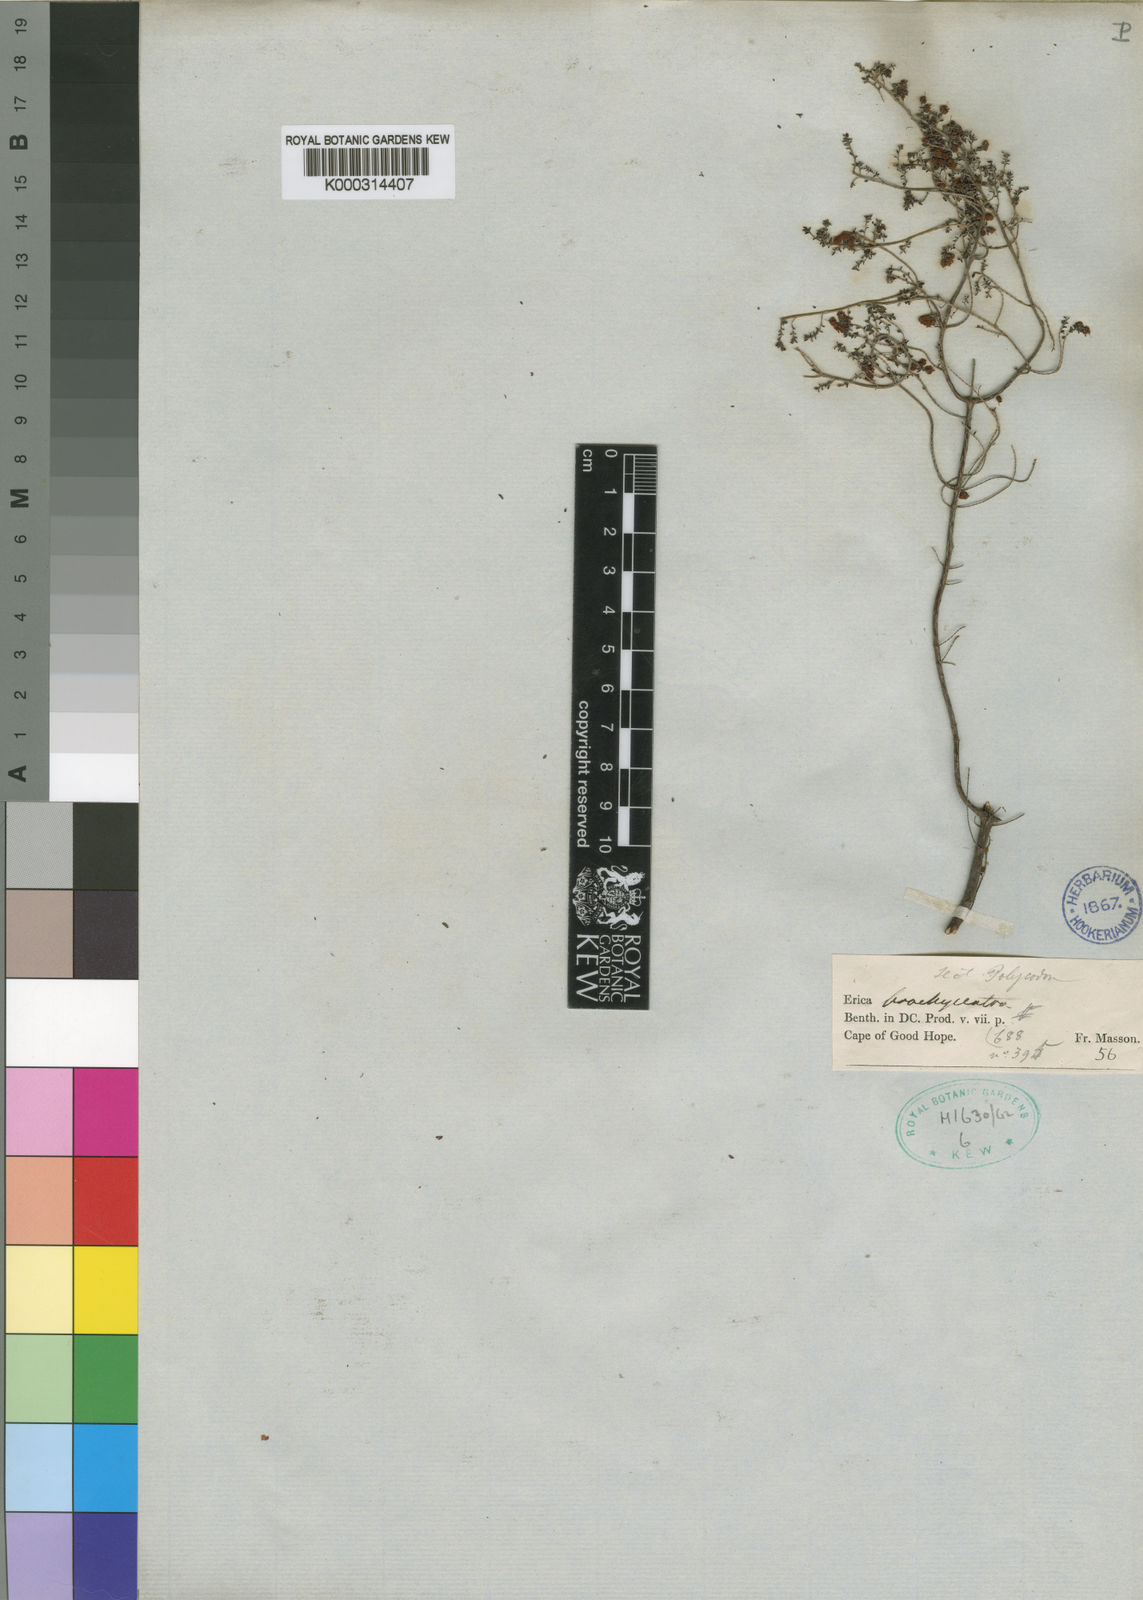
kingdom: Plantae
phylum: Tracheophyta
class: Magnoliopsida
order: Ericales
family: Ericaceae
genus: Erica
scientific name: Erica brachycentra
